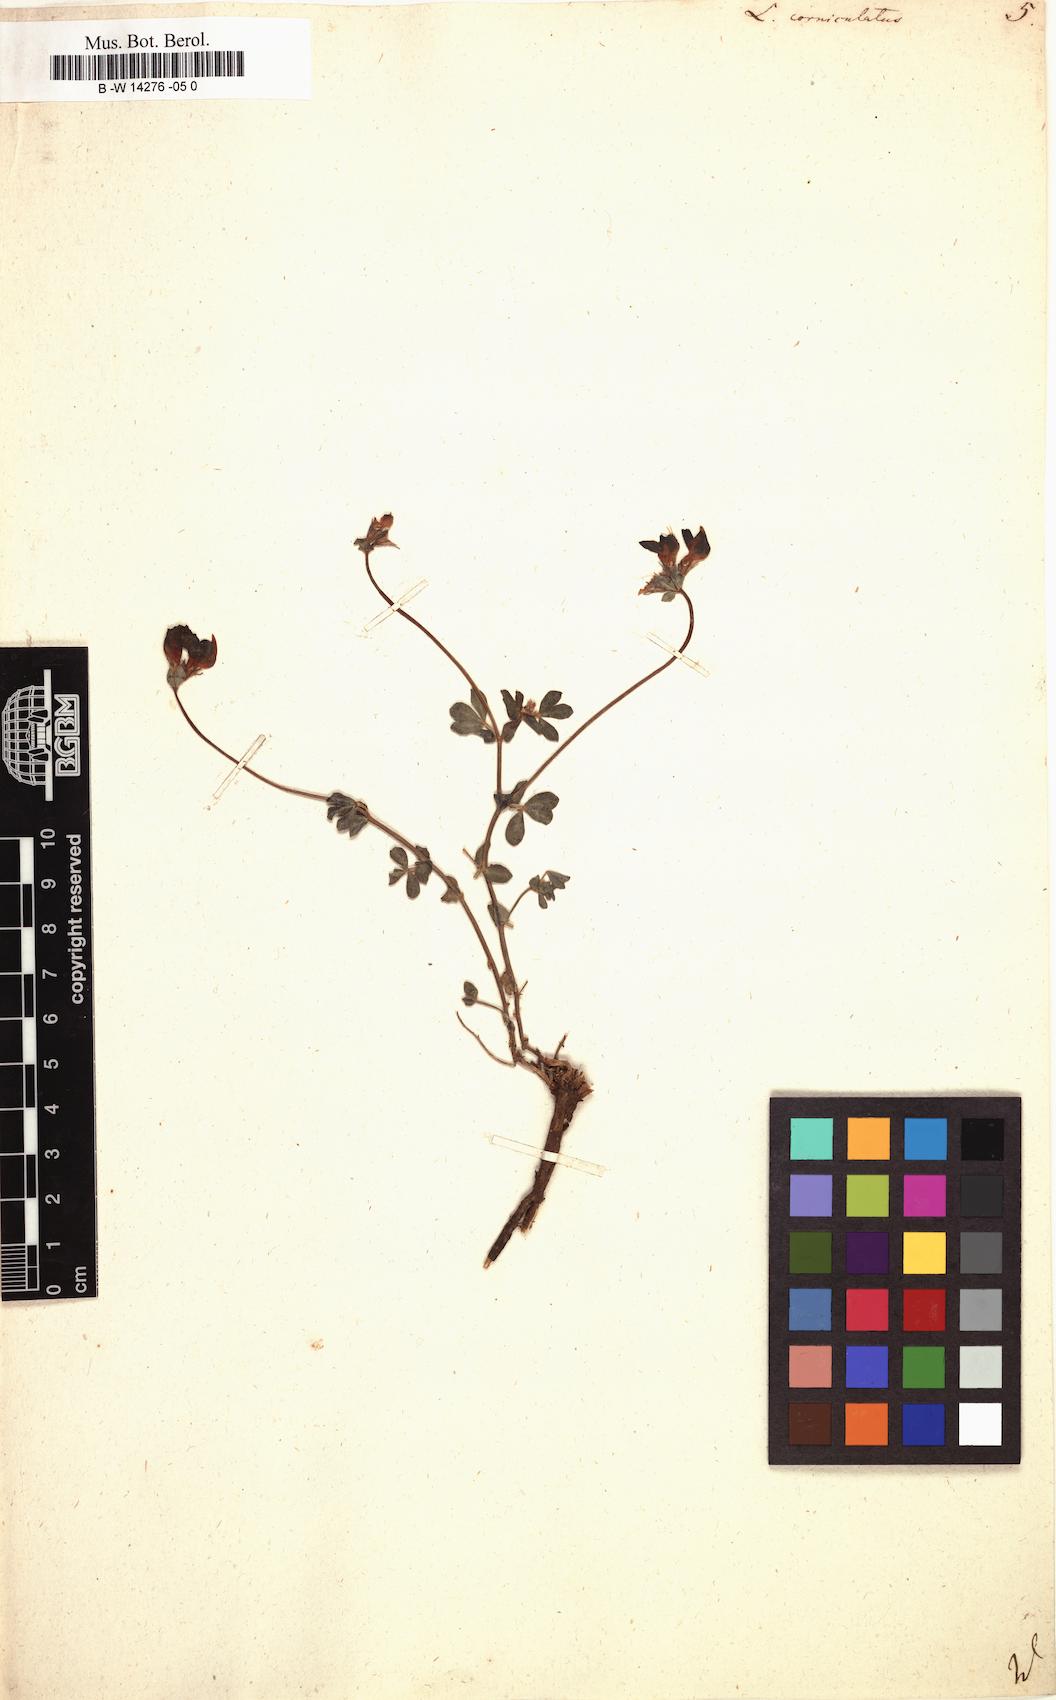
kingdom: Plantae
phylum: Tracheophyta
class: Magnoliopsida
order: Fabales
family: Fabaceae
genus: Lotus
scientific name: Lotus corniculatus
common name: Common bird's-foot-trefoil
